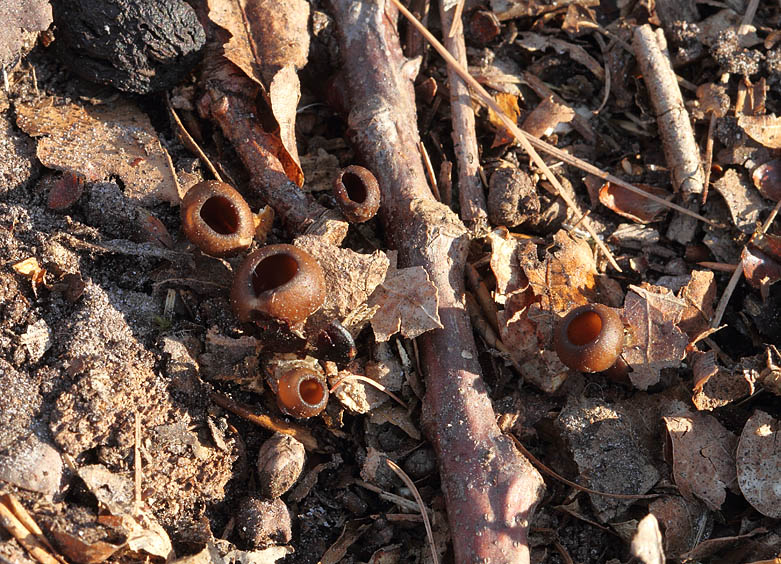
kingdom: Fungi
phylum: Ascomycota
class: Leotiomycetes
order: Helotiales
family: Sclerotiniaceae
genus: Dumontinia
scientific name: Dumontinia tuberosa
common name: anemone-knoldskive
